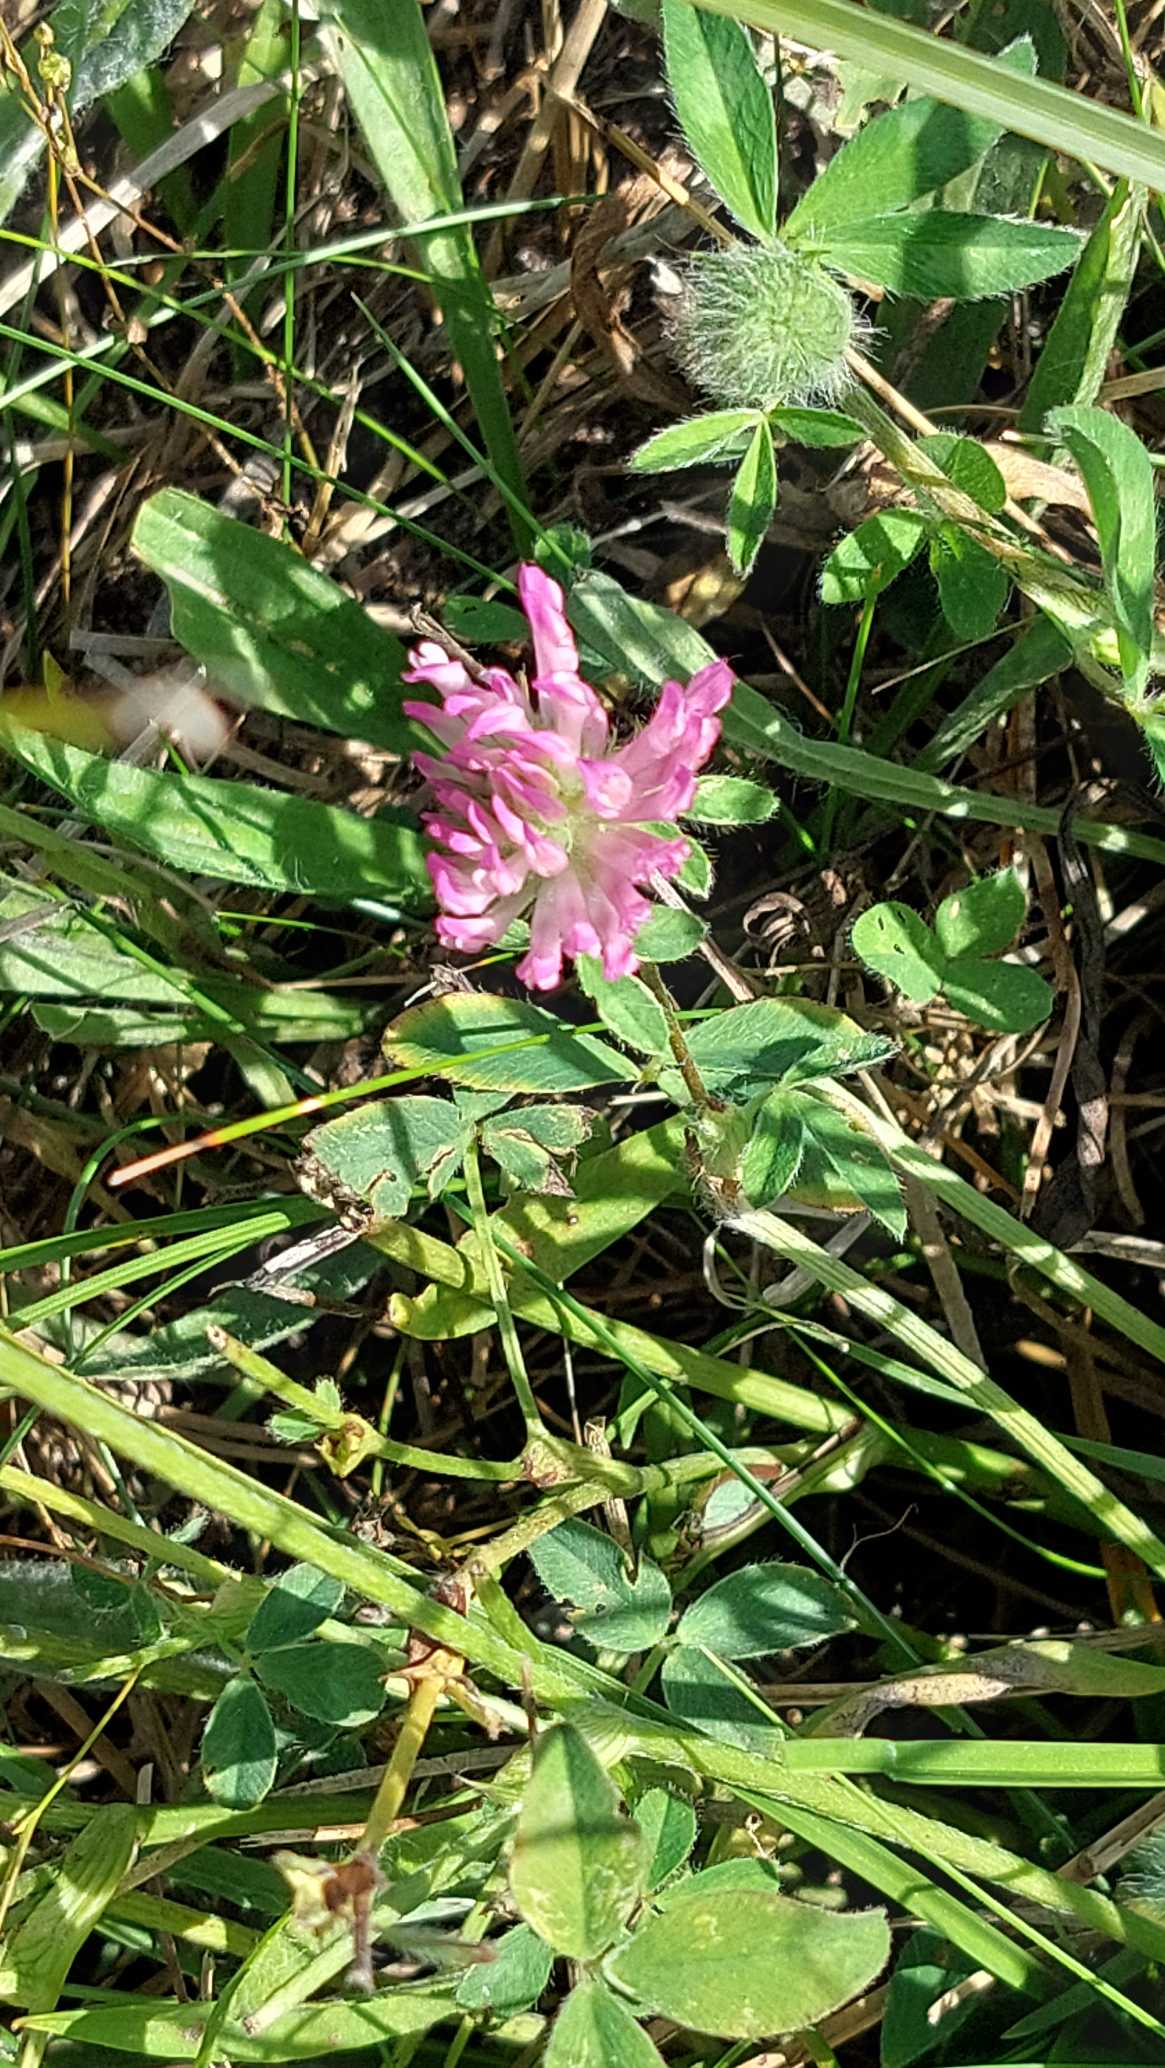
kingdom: Plantae
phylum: Tracheophyta
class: Magnoliopsida
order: Fabales
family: Fabaceae
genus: Trifolium
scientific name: Trifolium pratense
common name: Rød-kløver
